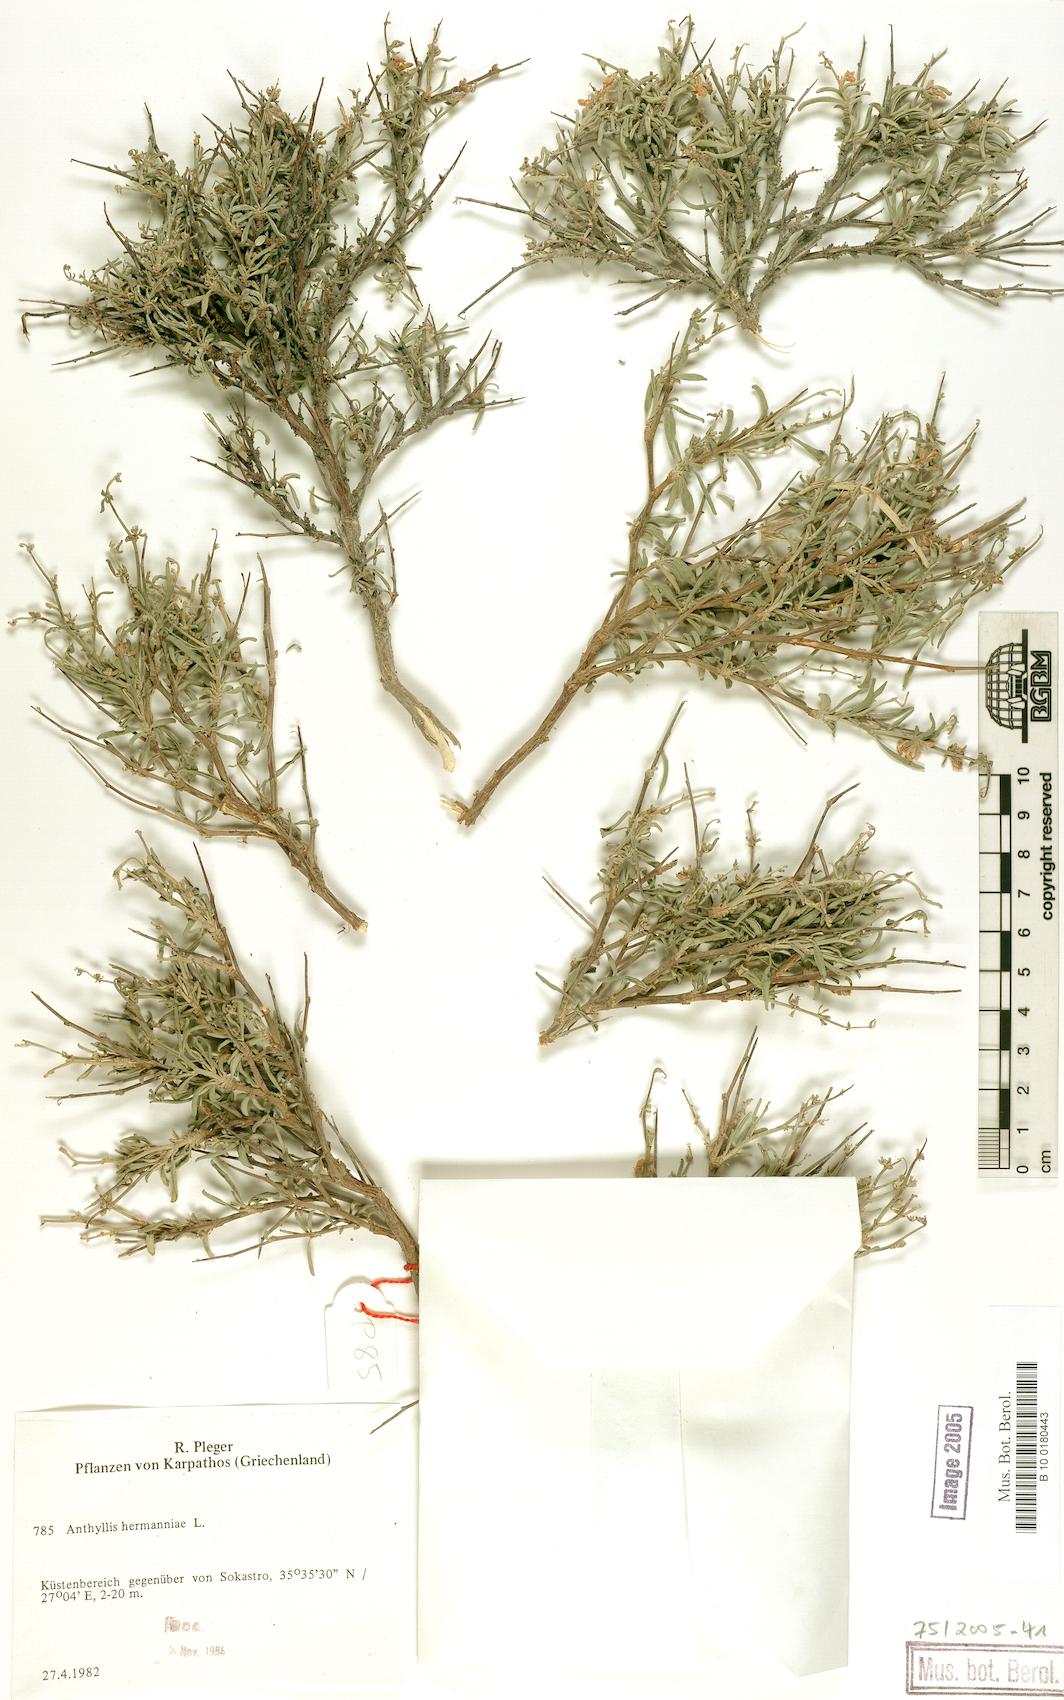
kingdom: Plantae
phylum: Tracheophyta
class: Magnoliopsida
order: Fabales
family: Fabaceae
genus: Anthyllis
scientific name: Anthyllis hermanniae
